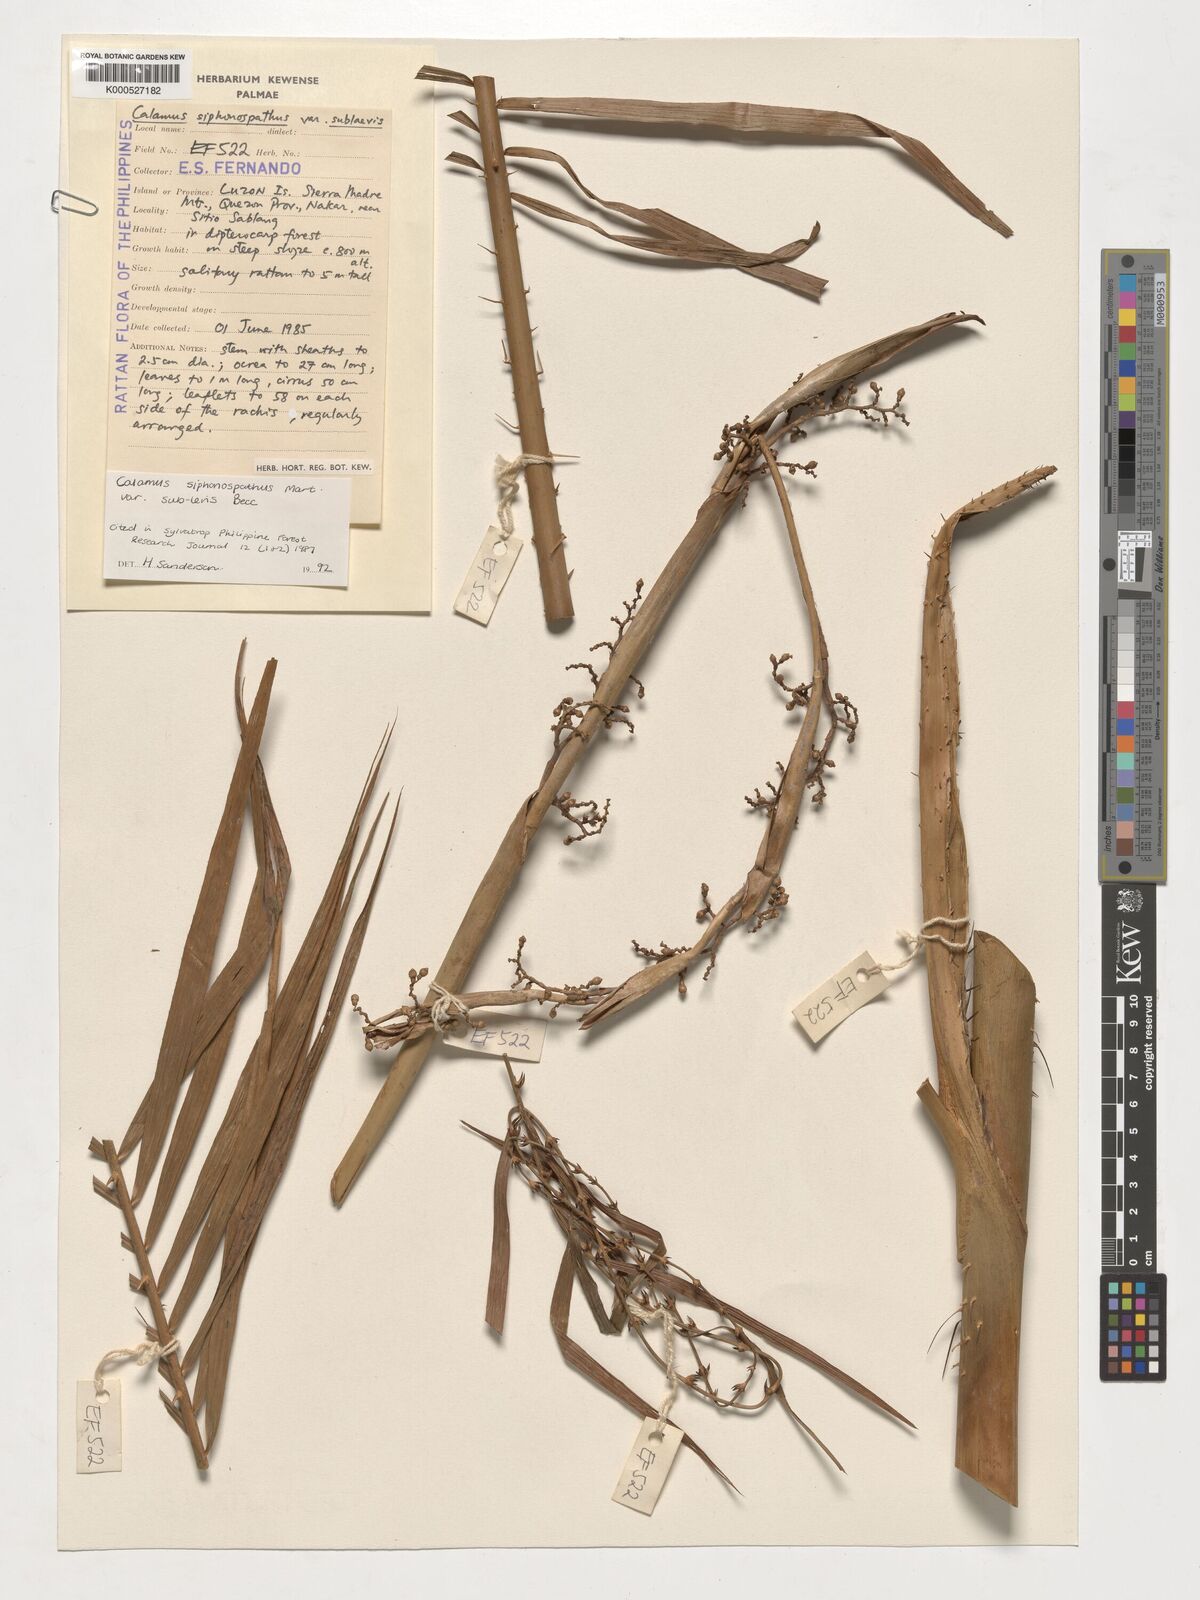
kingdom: Plantae
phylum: Tracheophyta
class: Liliopsida
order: Arecales
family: Arecaceae
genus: Calamus
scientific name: Calamus siphonospathus
